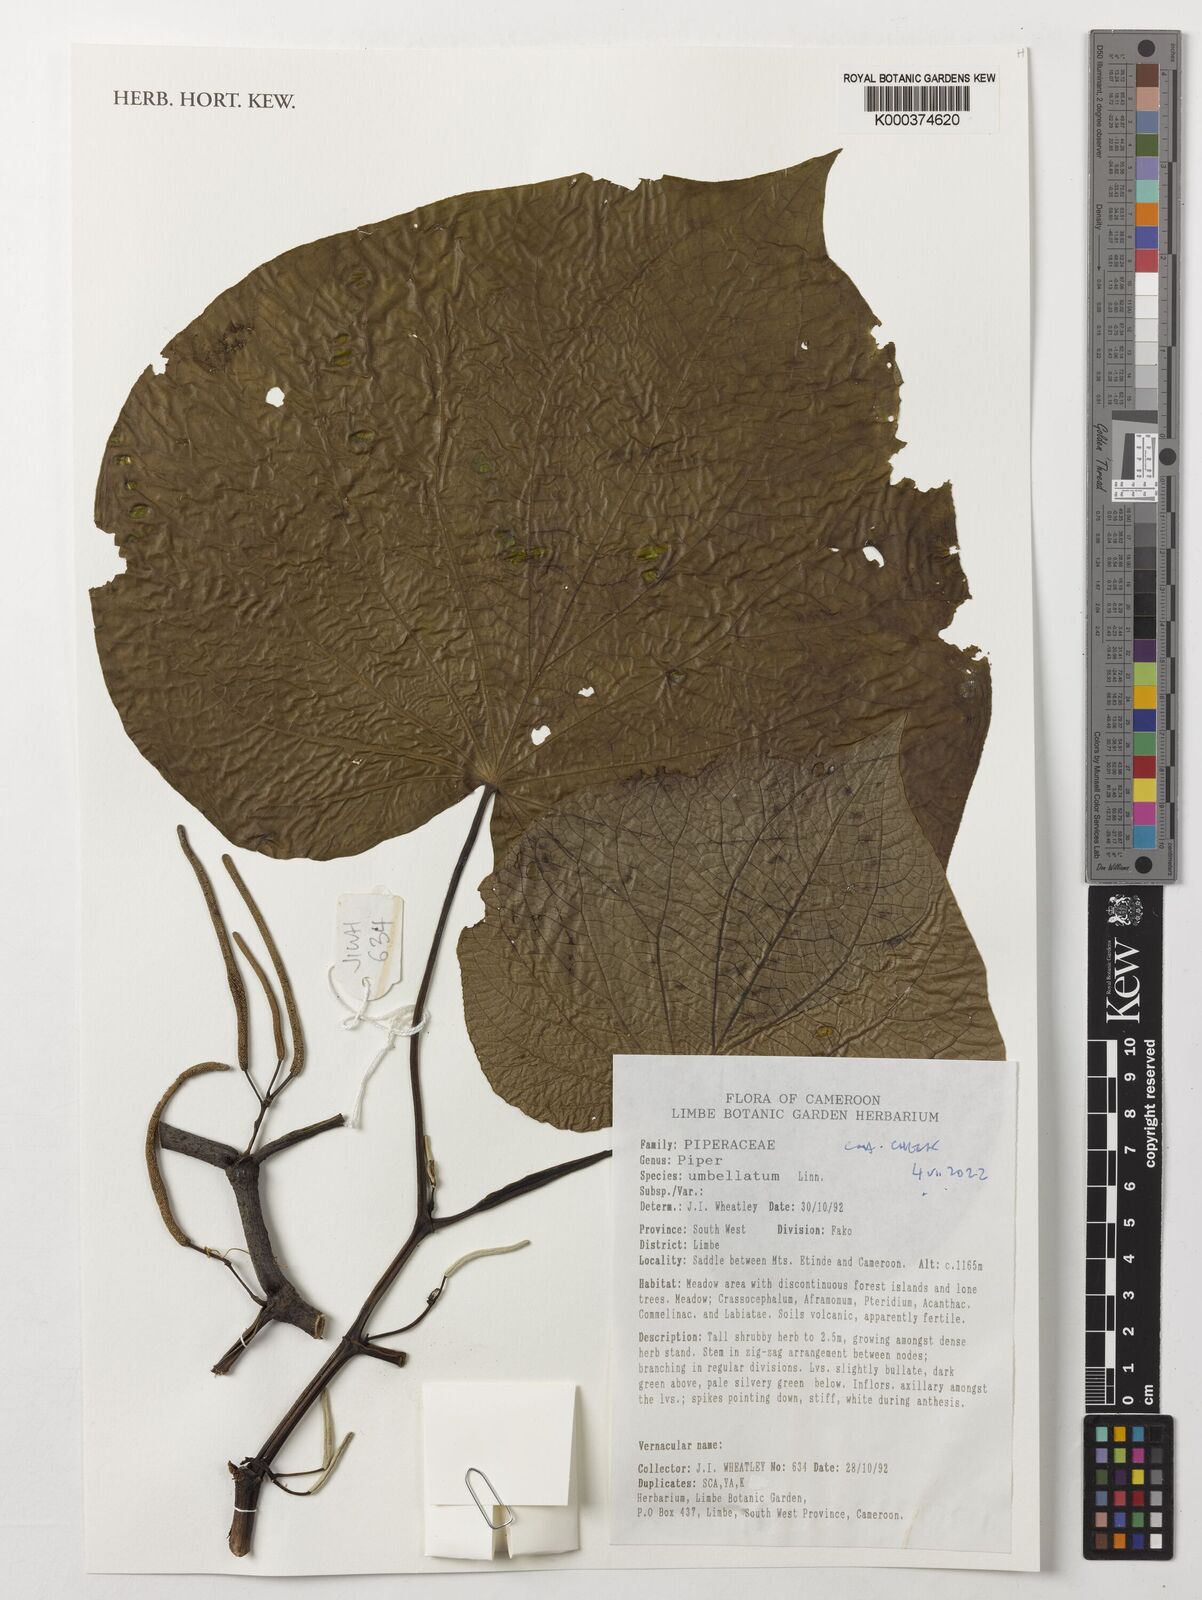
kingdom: Plantae
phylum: Tracheophyta
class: Magnoliopsida
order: Piperales
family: Piperaceae
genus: Piper
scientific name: Piper umbellatum
